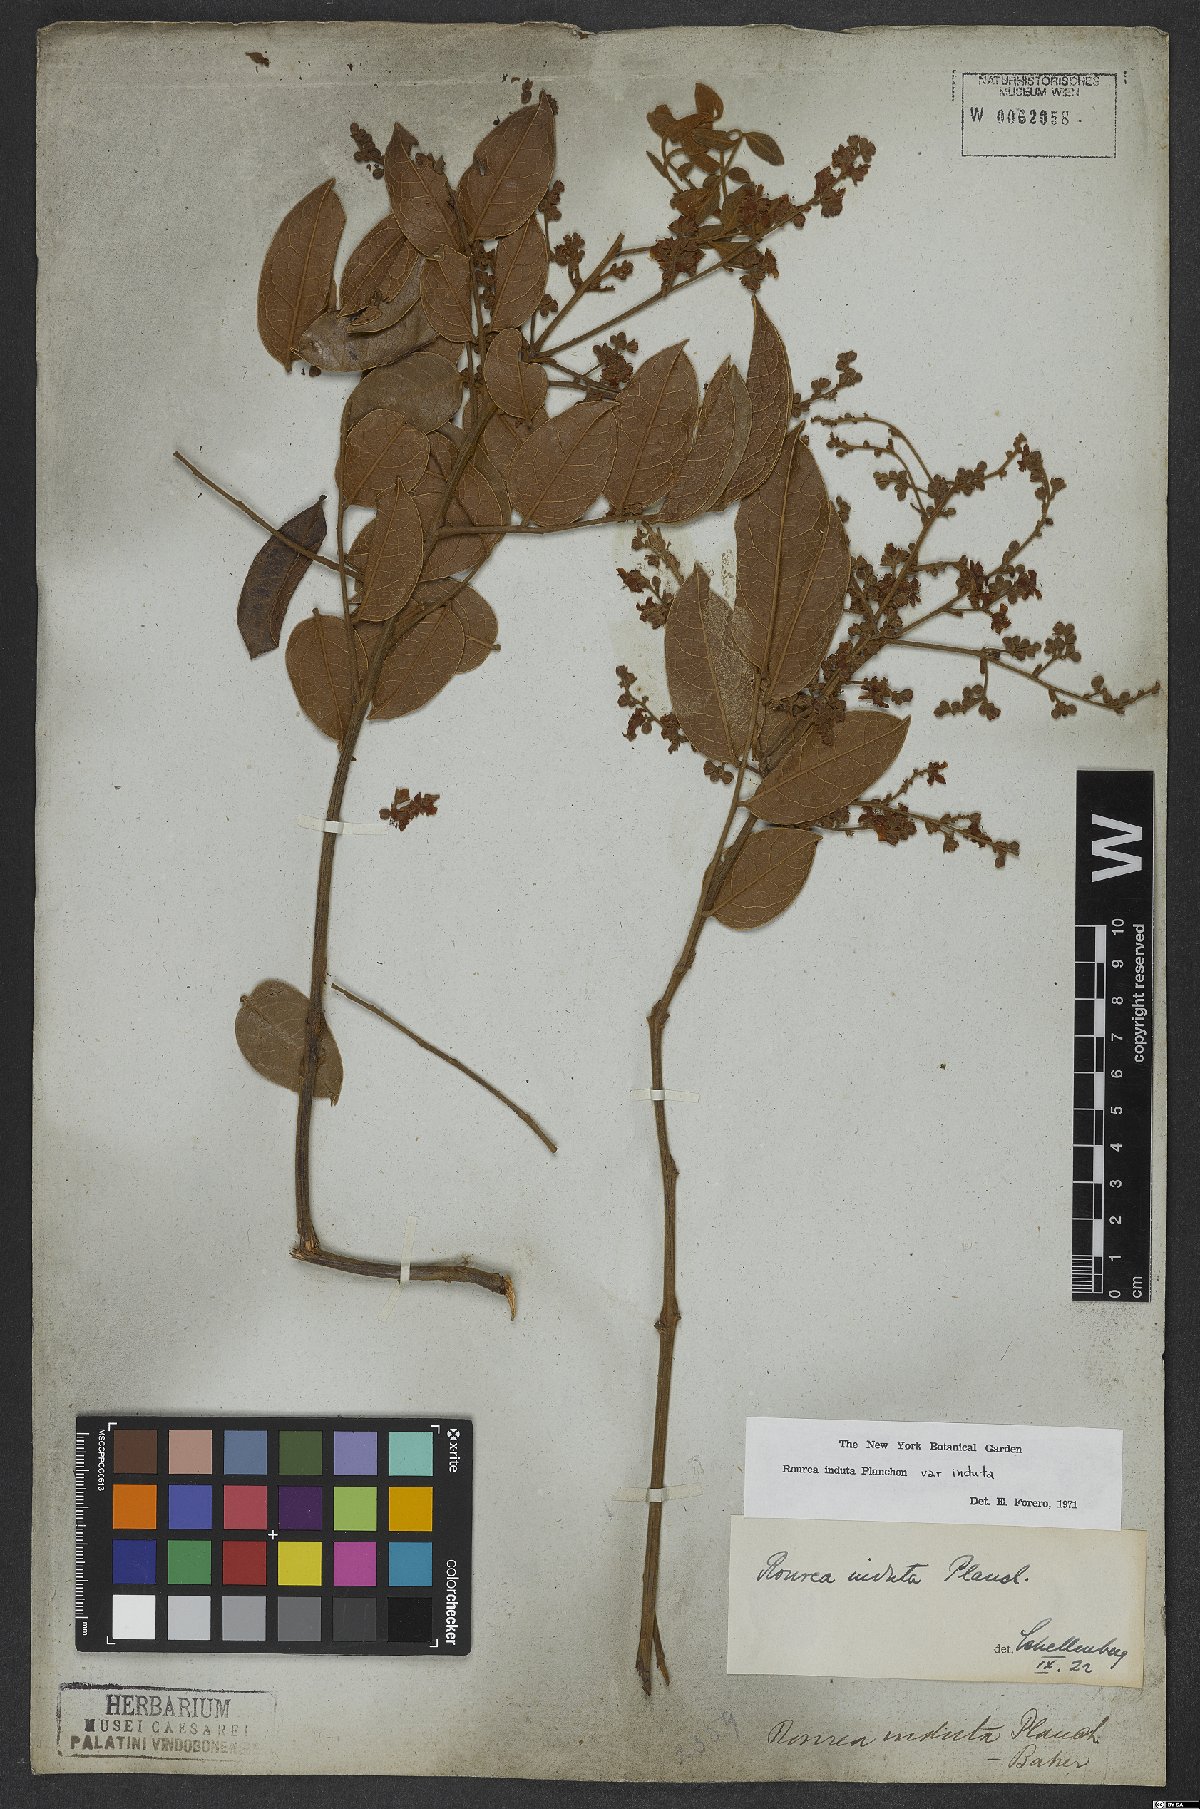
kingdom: Plantae
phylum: Tracheophyta
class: Magnoliopsida
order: Oxalidales
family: Connaraceae
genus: Rourea
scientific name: Rourea induta
